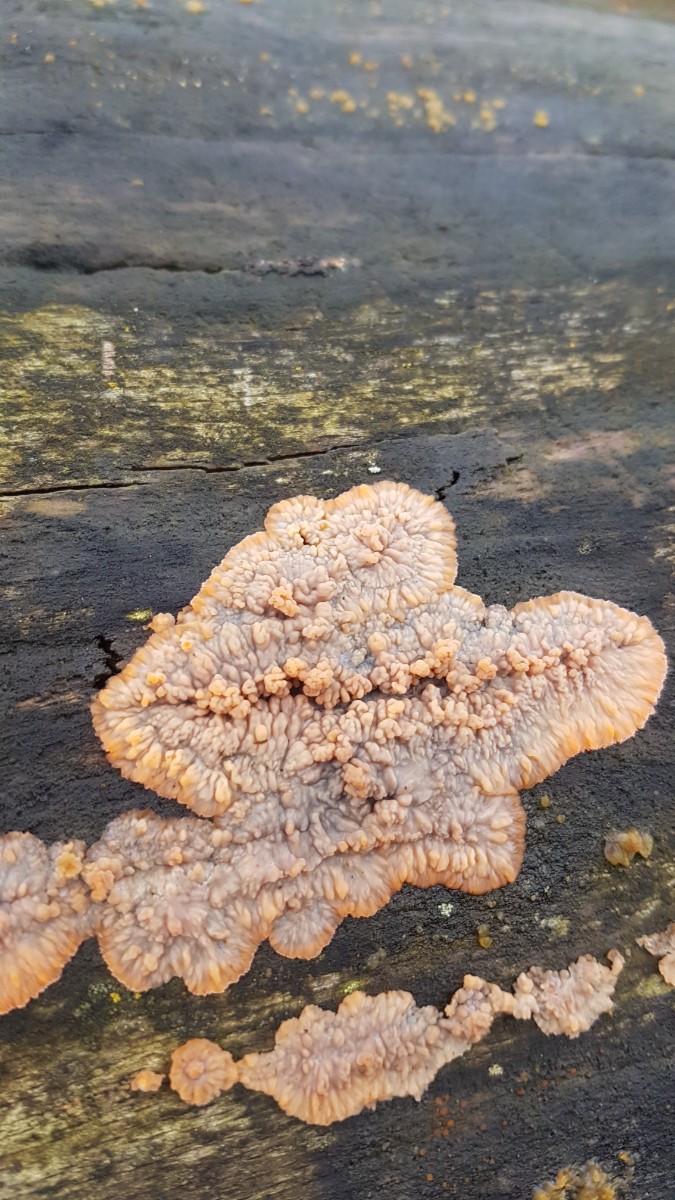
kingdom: Fungi
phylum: Basidiomycota
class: Agaricomycetes
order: Polyporales
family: Meruliaceae
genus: Phlebia
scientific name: Phlebia radiata
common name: stråle-åresvamp
